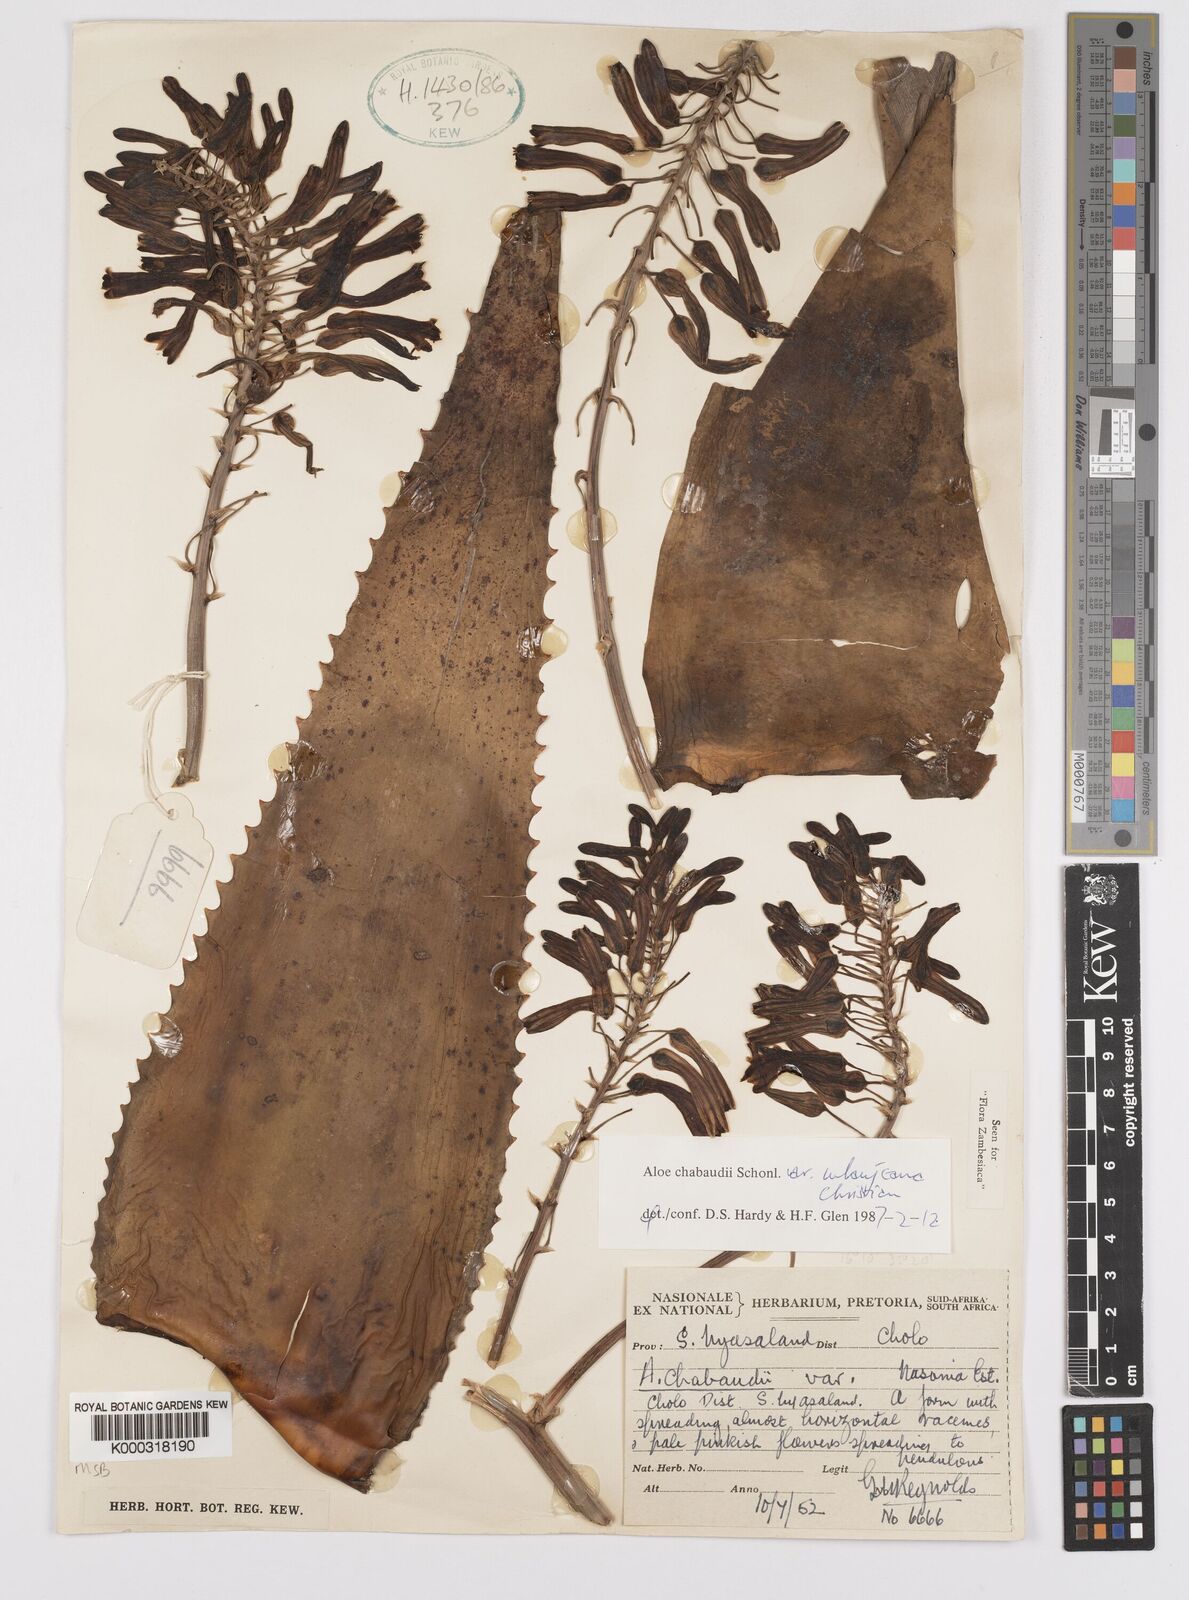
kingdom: Plantae
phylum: Tracheophyta
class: Liliopsida
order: Asparagales
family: Asphodelaceae
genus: Aloe
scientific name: Aloe chabaudii
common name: Chabaud's aloe
